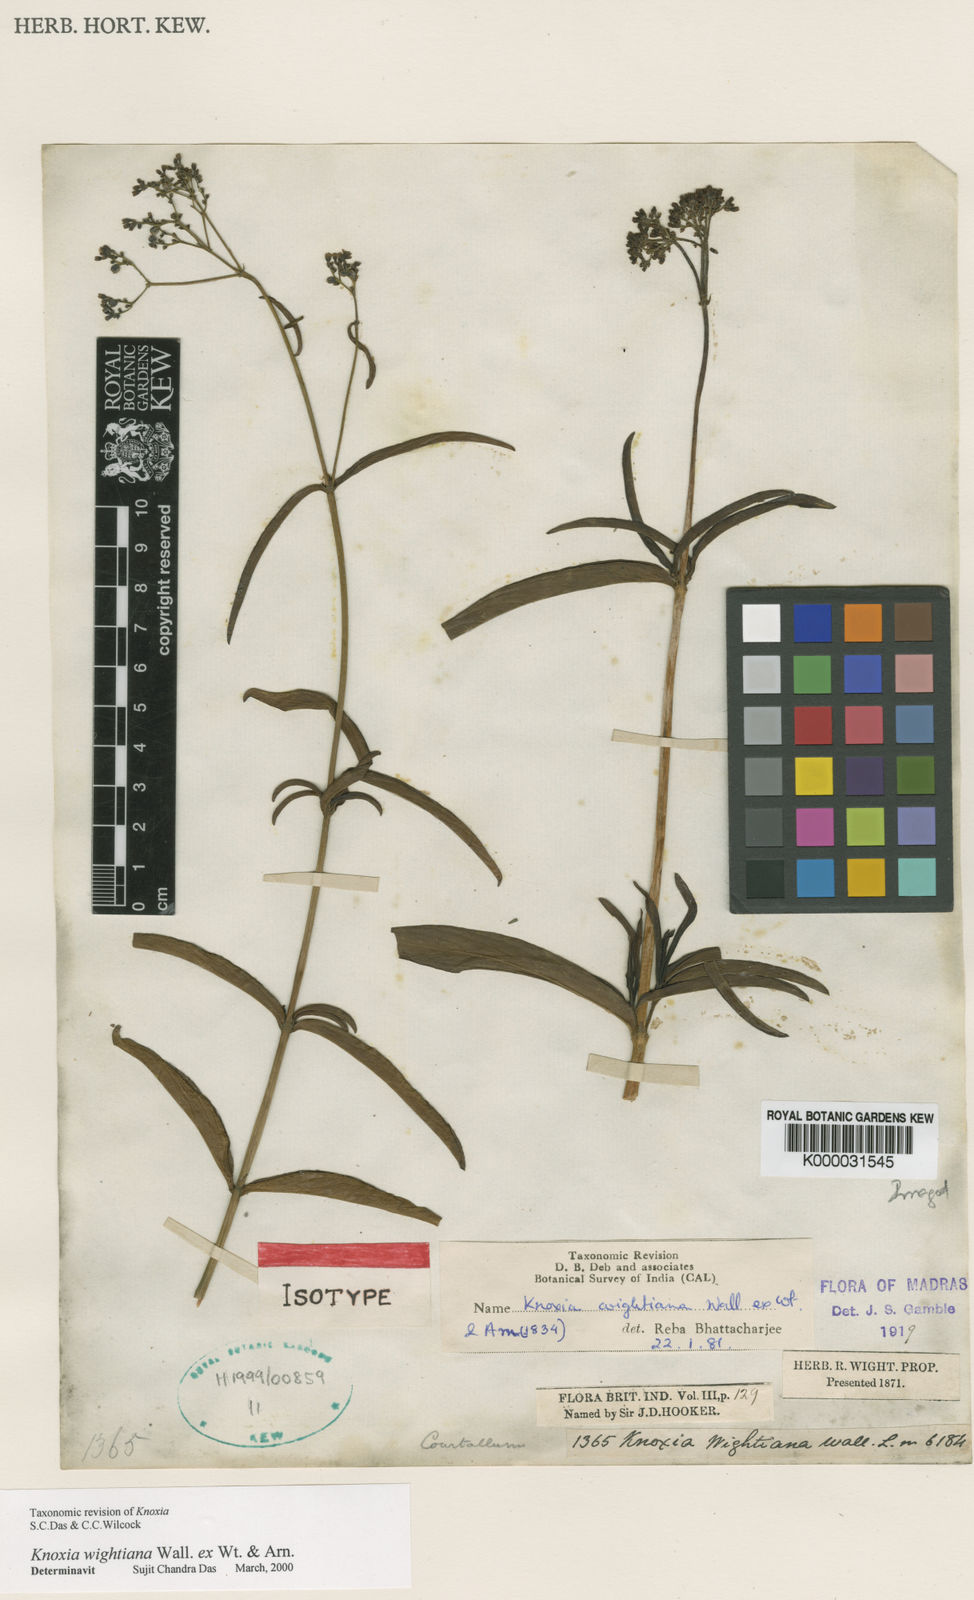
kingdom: Plantae
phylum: Tracheophyta
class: Magnoliopsida
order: Gentianales
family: Rubiaceae
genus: Knoxia
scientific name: Knoxia
